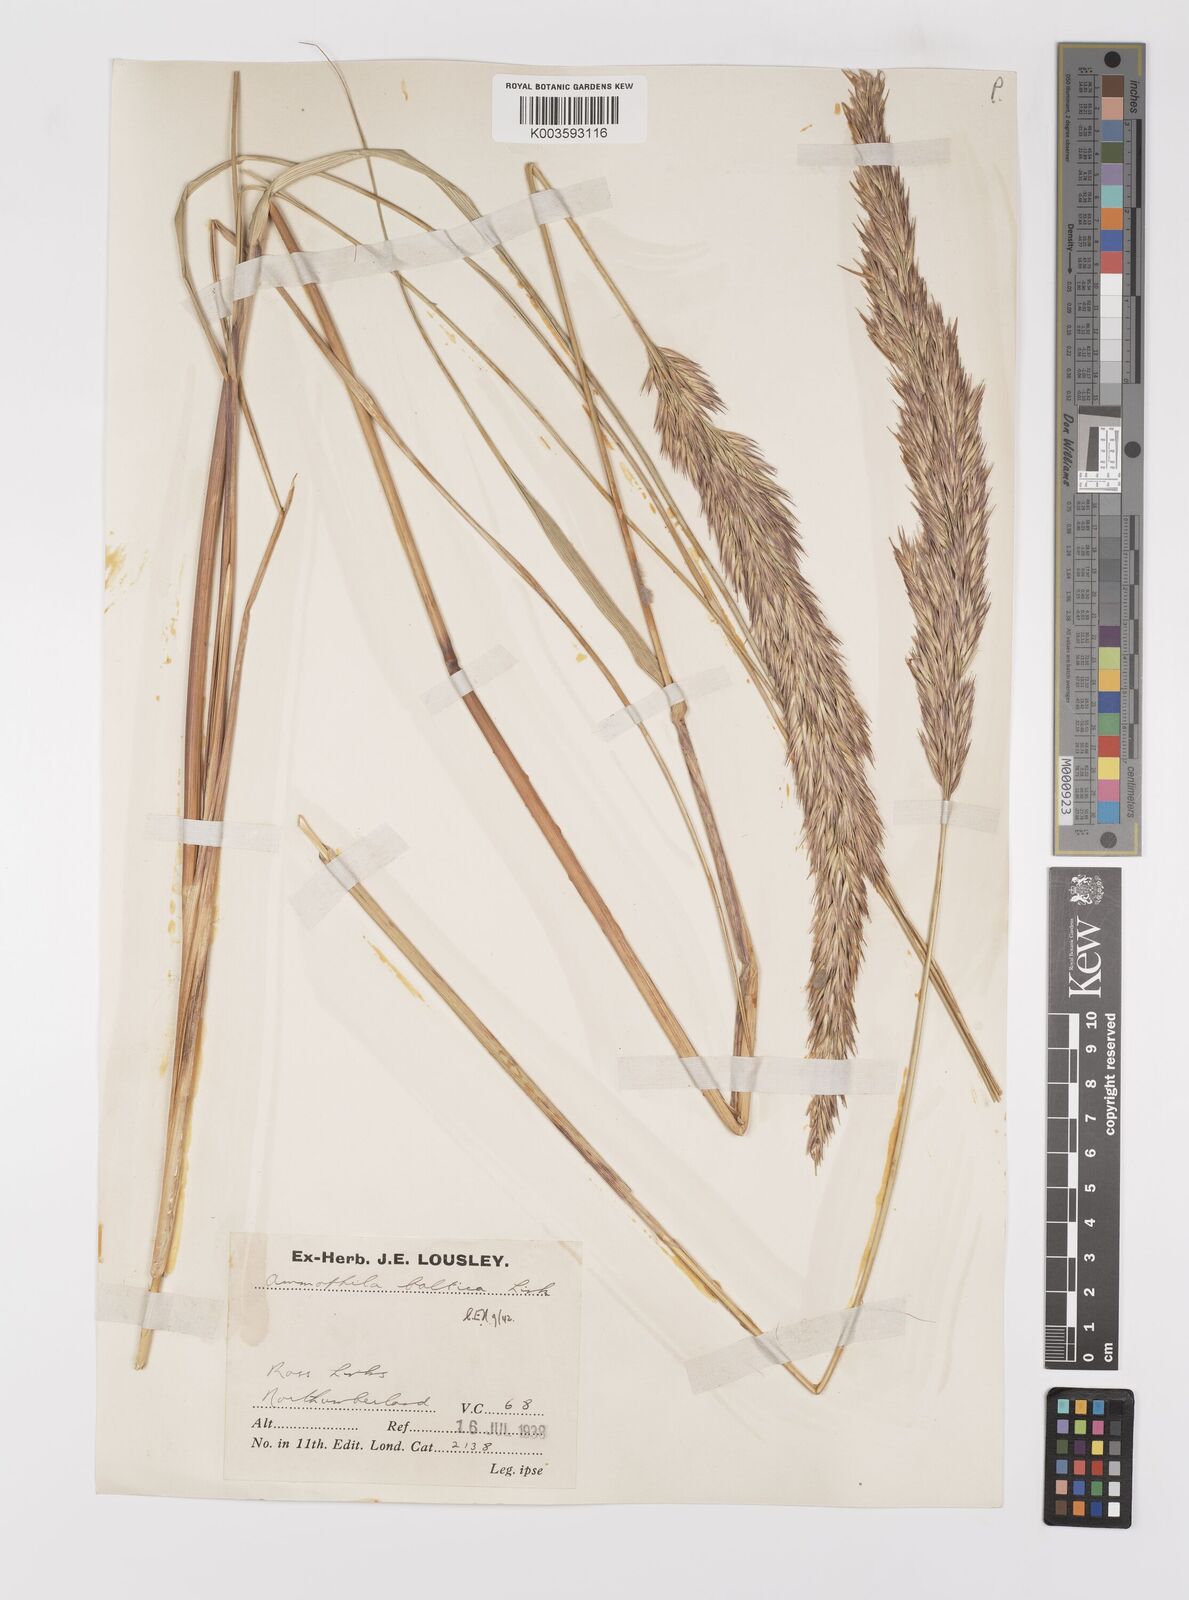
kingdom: Plantae
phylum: Tracheophyta
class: Liliopsida
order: Poales
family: Poaceae
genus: Calamagrostis
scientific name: Calamagrostis baltica
